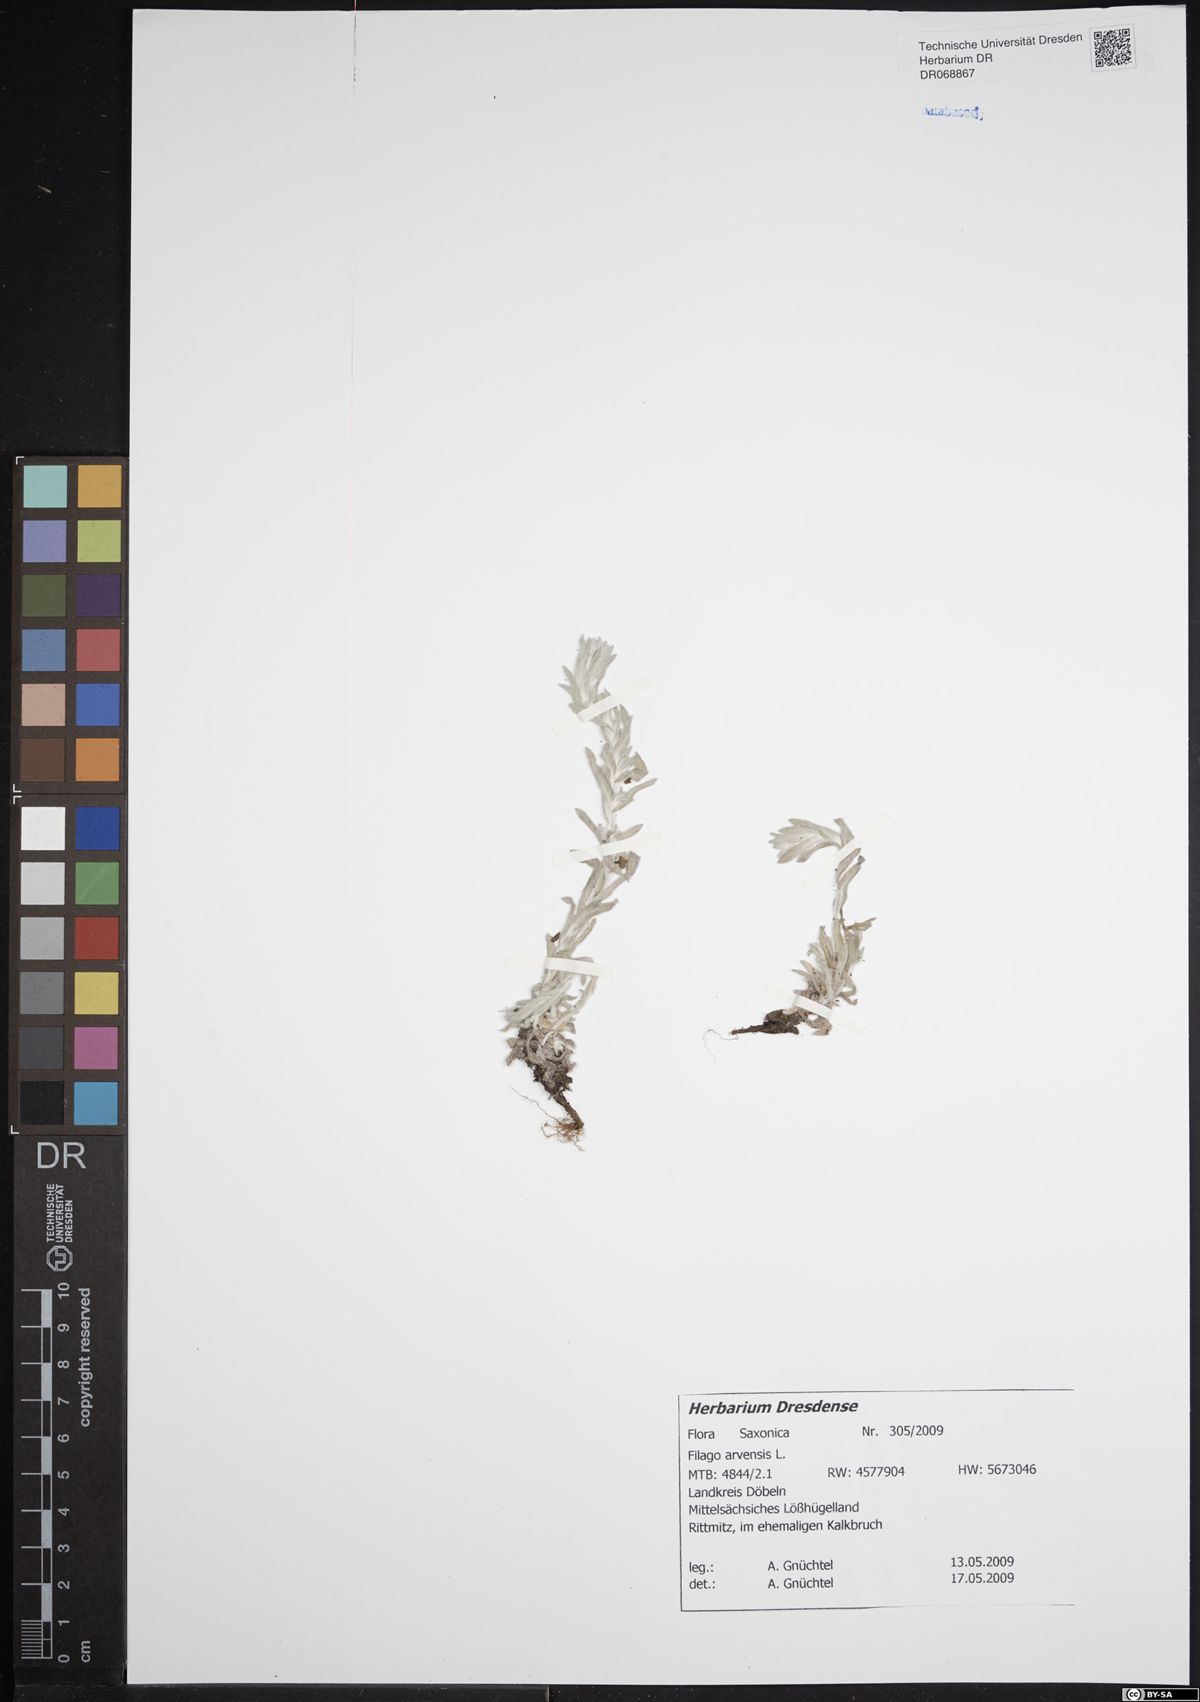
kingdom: Plantae
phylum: Tracheophyta
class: Magnoliopsida
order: Asterales
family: Asteraceae
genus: Filago
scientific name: Filago arvensis
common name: Field cudweed
